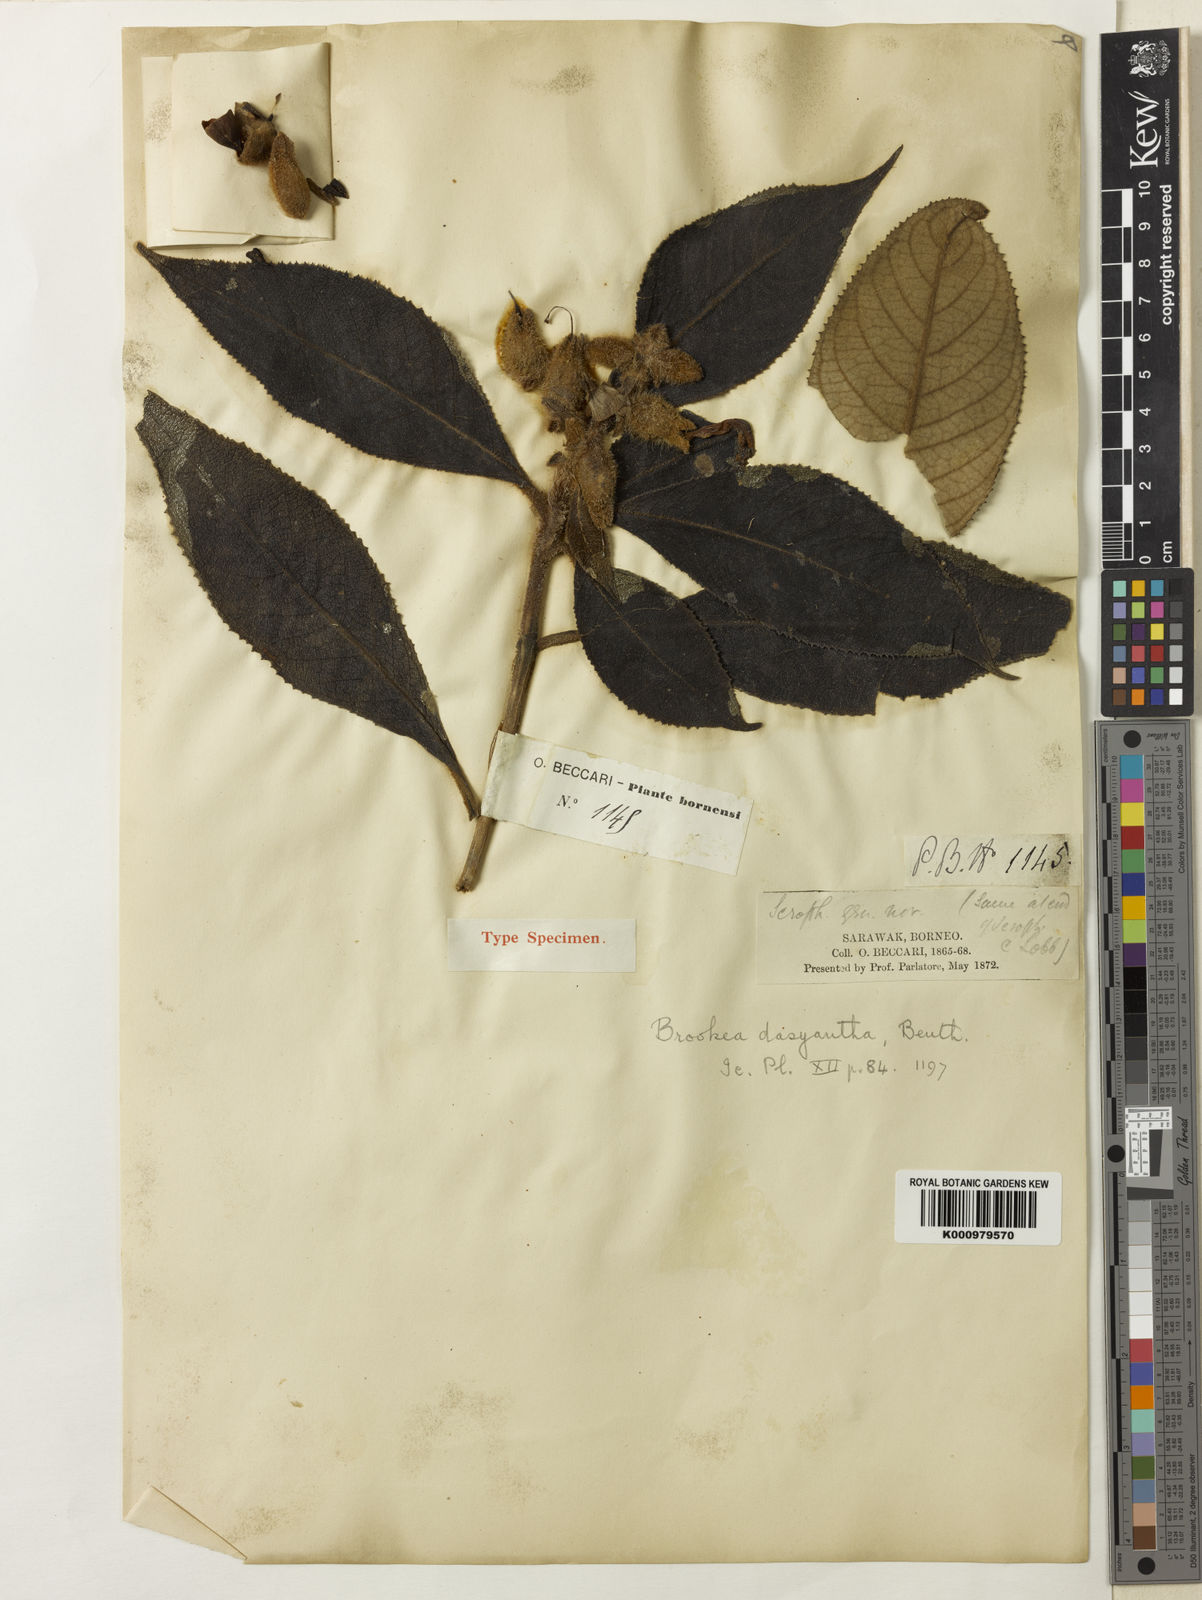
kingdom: Plantae
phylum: Tracheophyta
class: Magnoliopsida
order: Lamiales
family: Plantaginaceae
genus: Brookea
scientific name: Brookea dasyantha
